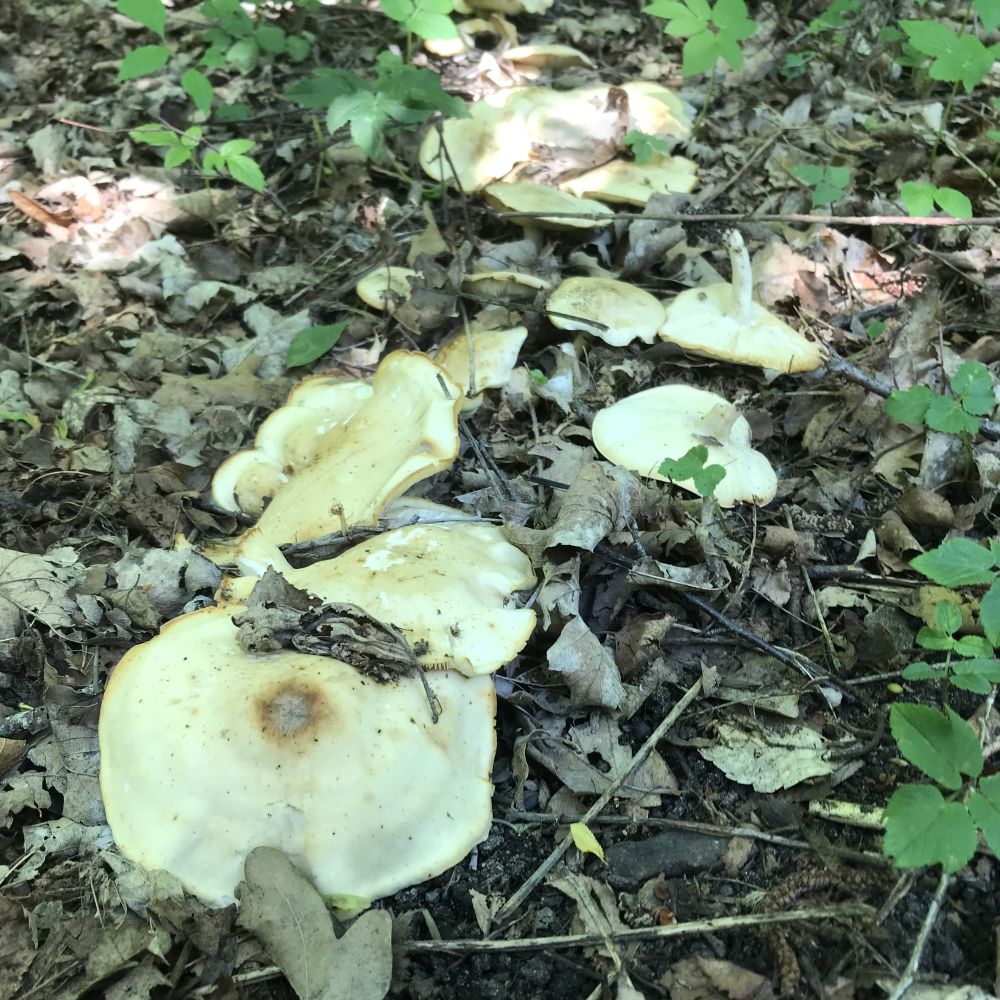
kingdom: Fungi
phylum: Basidiomycota
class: Agaricomycetes
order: Agaricales
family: Lyophyllaceae
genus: Calocybe
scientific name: Calocybe gambosa
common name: vårmusseron
